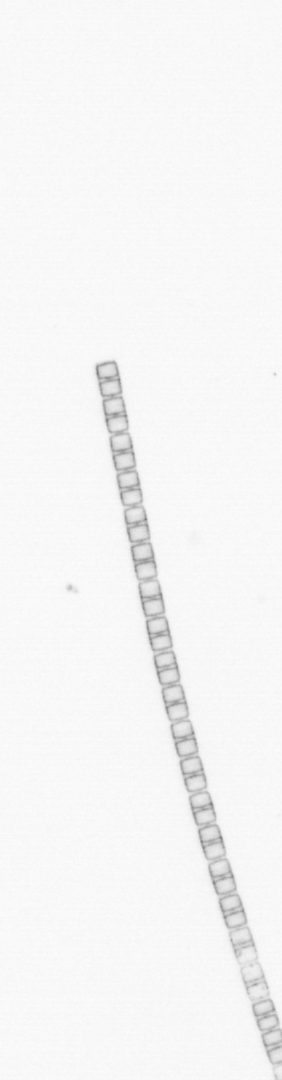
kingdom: Chromista
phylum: Ochrophyta
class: Bacillariophyceae
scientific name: Bacillariophyceae
